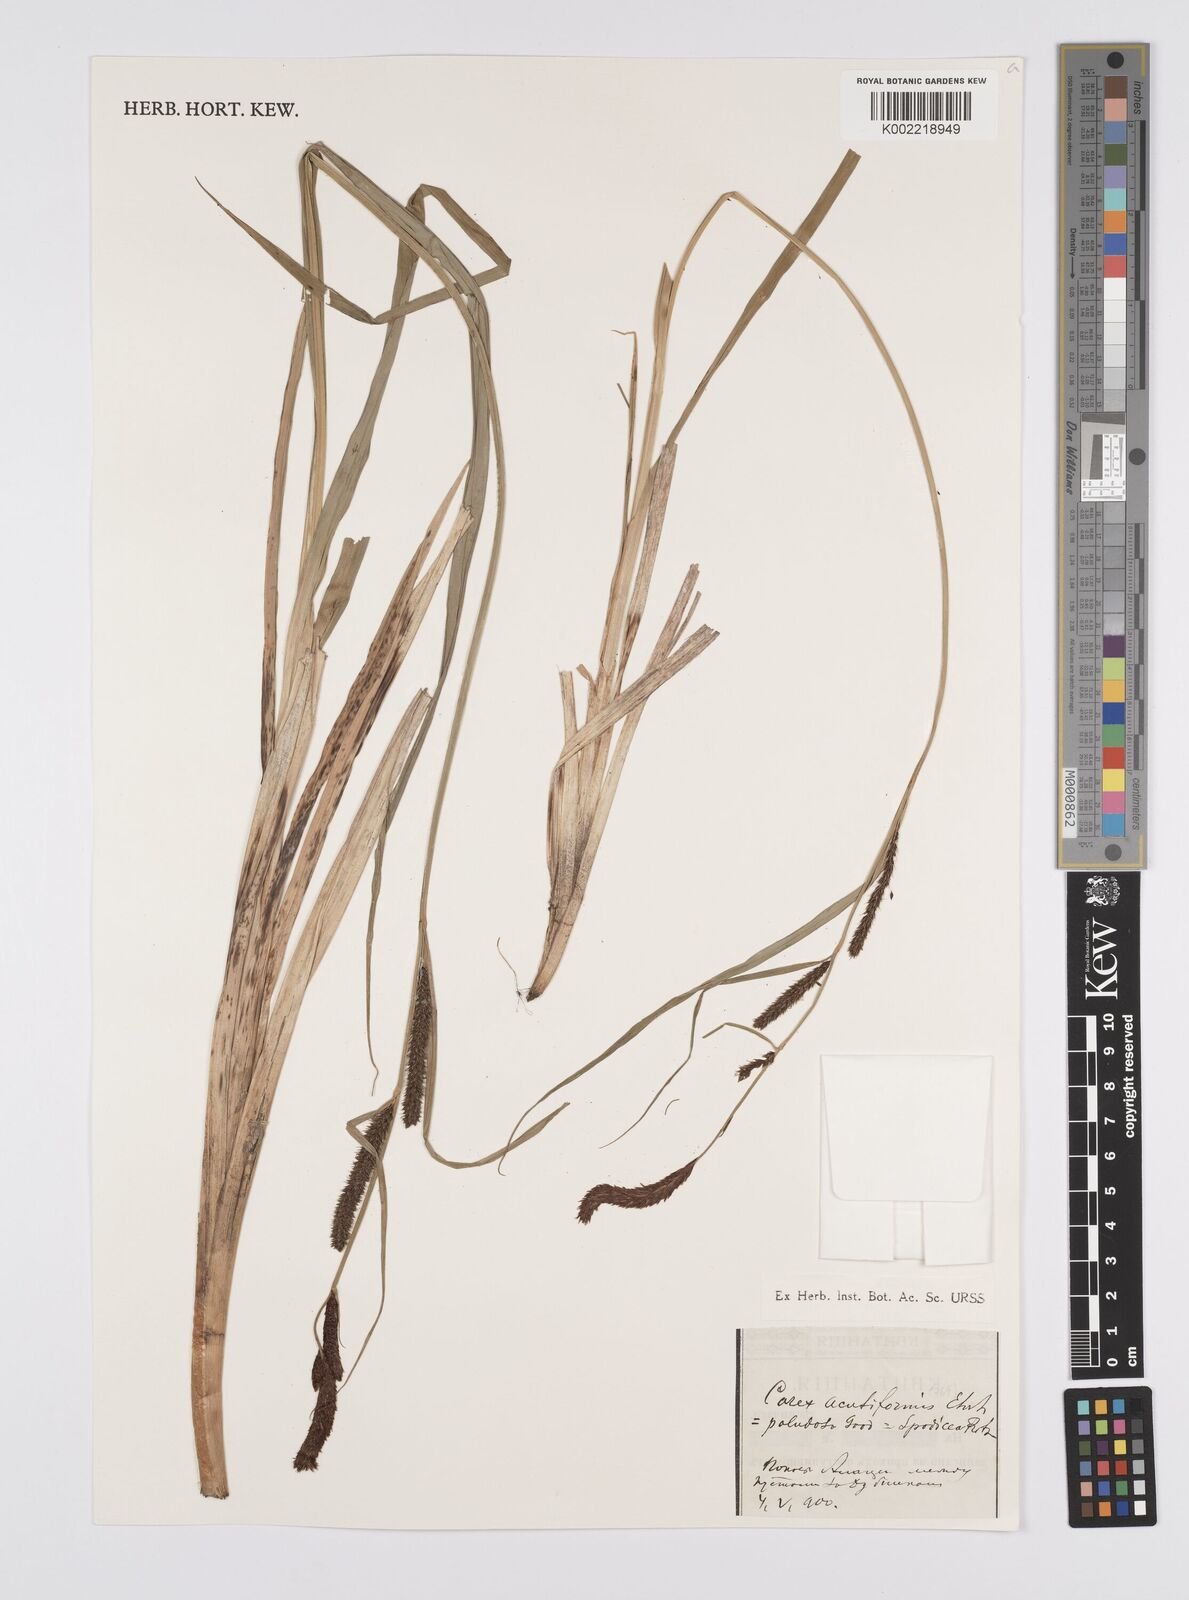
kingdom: Plantae
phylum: Tracheophyta
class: Liliopsida
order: Poales
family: Cyperaceae
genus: Carex
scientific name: Carex acutiformis
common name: Lesser pond-sedge
